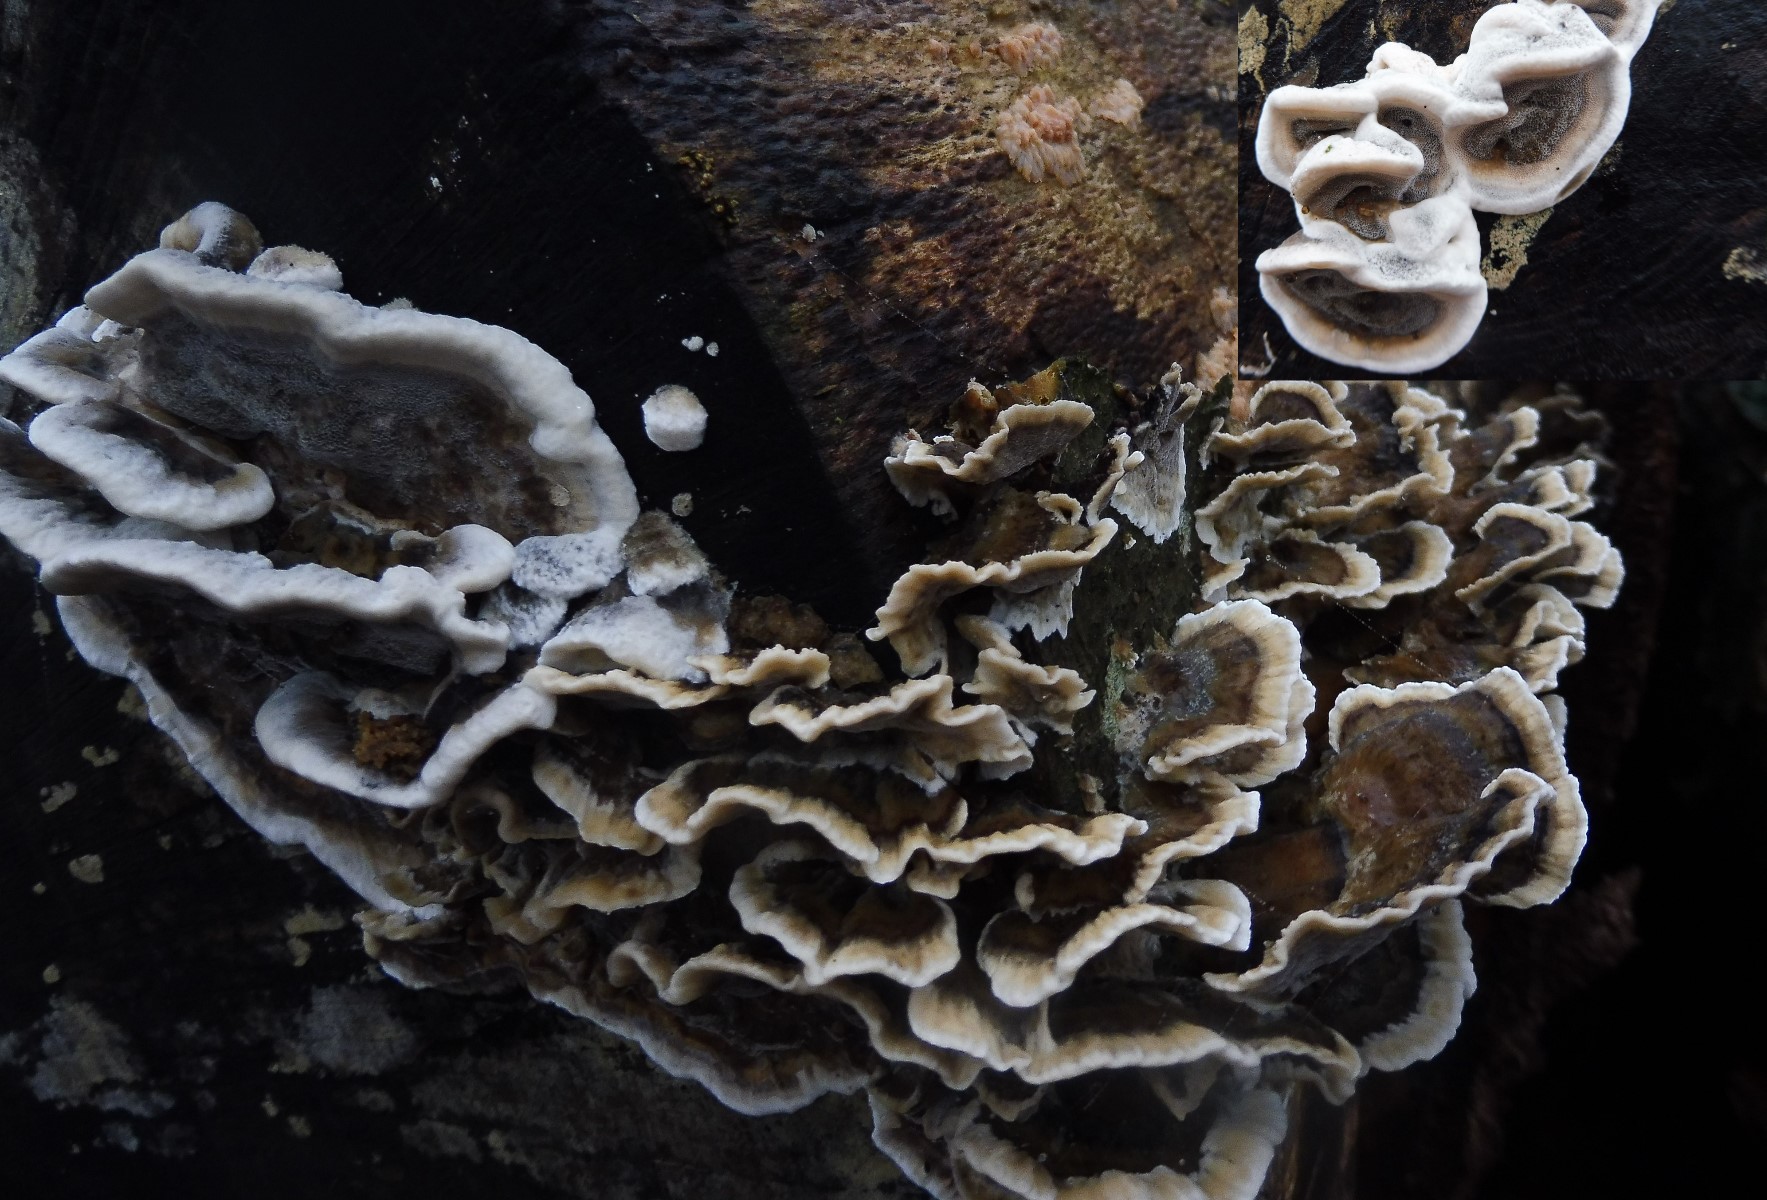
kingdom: Fungi
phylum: Basidiomycota
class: Agaricomycetes
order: Polyporales
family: Phanerochaetaceae
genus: Bjerkandera
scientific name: Bjerkandera adusta
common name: sveden sodporesvamp
